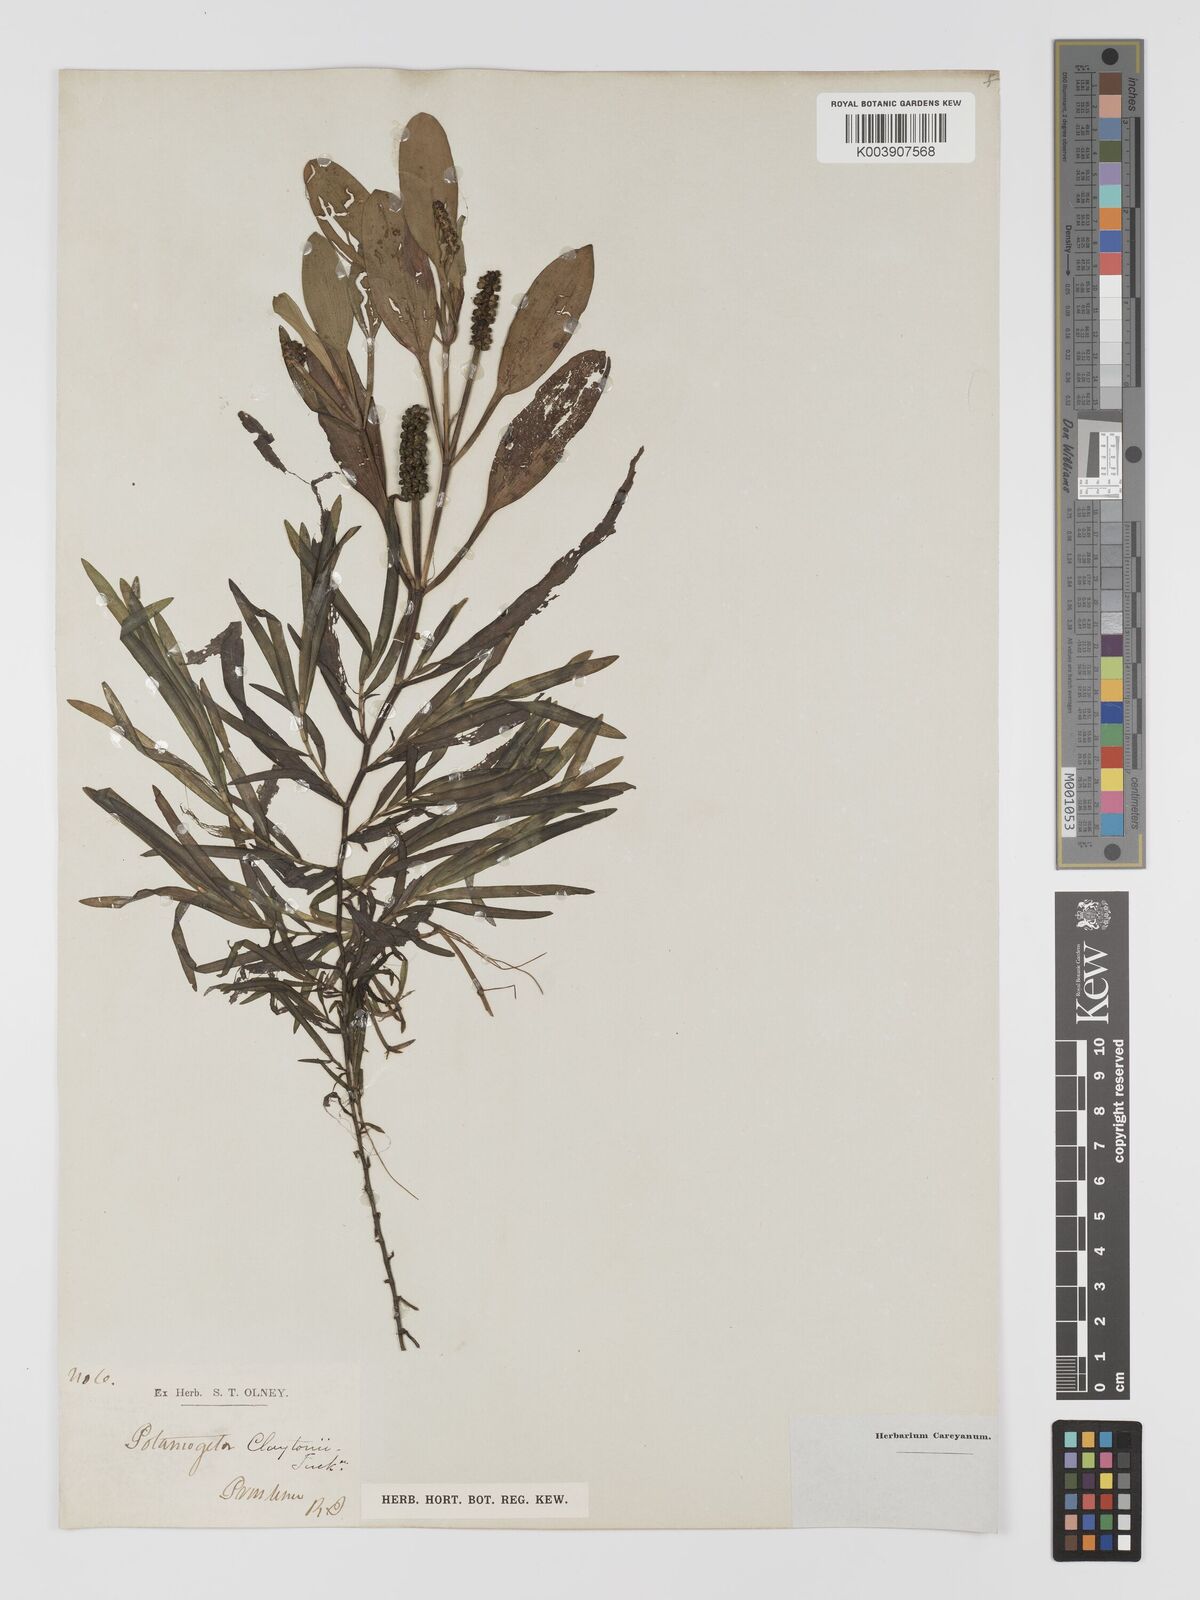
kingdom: Plantae
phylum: Tracheophyta
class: Liliopsida
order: Alismatales
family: Potamogetonaceae
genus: Potamogeton
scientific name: Potamogeton epihydrus
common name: American pondweed
